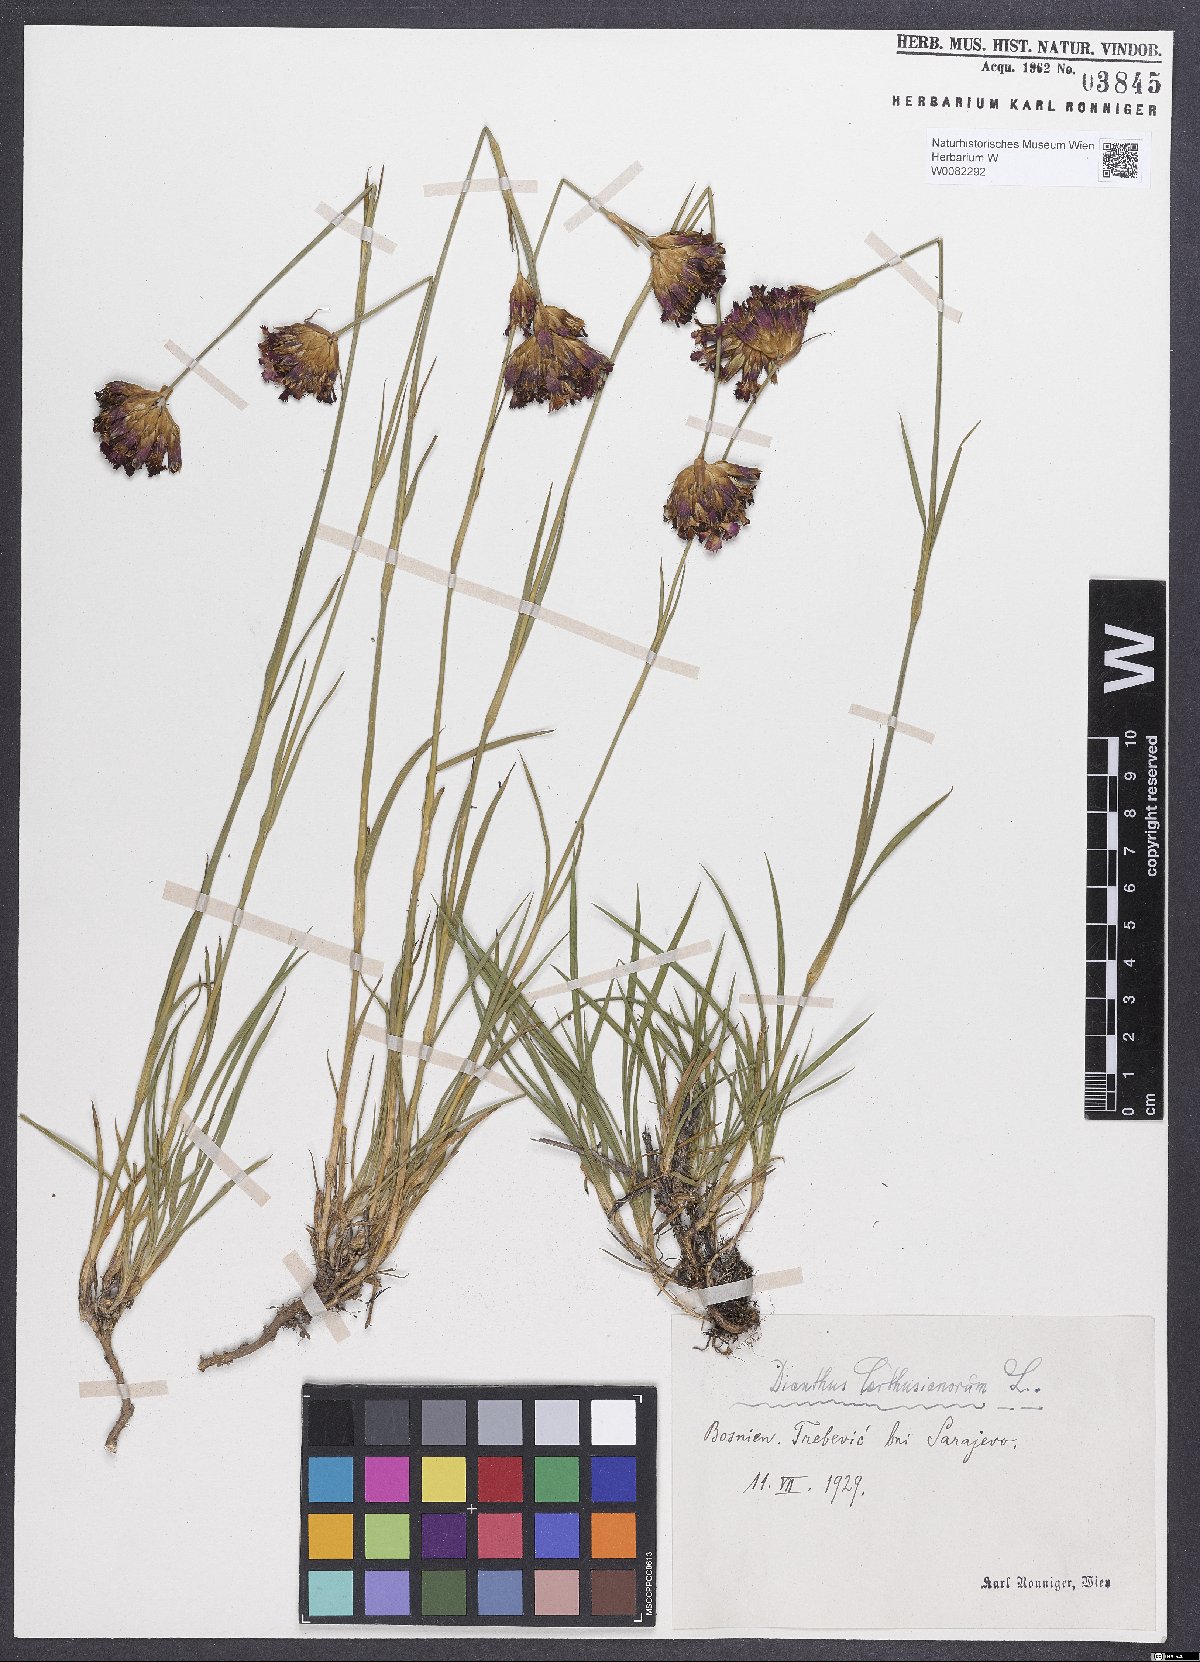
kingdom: Plantae
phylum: Tracheophyta
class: Magnoliopsida
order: Caryophyllales
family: Caryophyllaceae
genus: Dianthus
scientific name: Dianthus carthusianorum
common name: Carthusian pink
